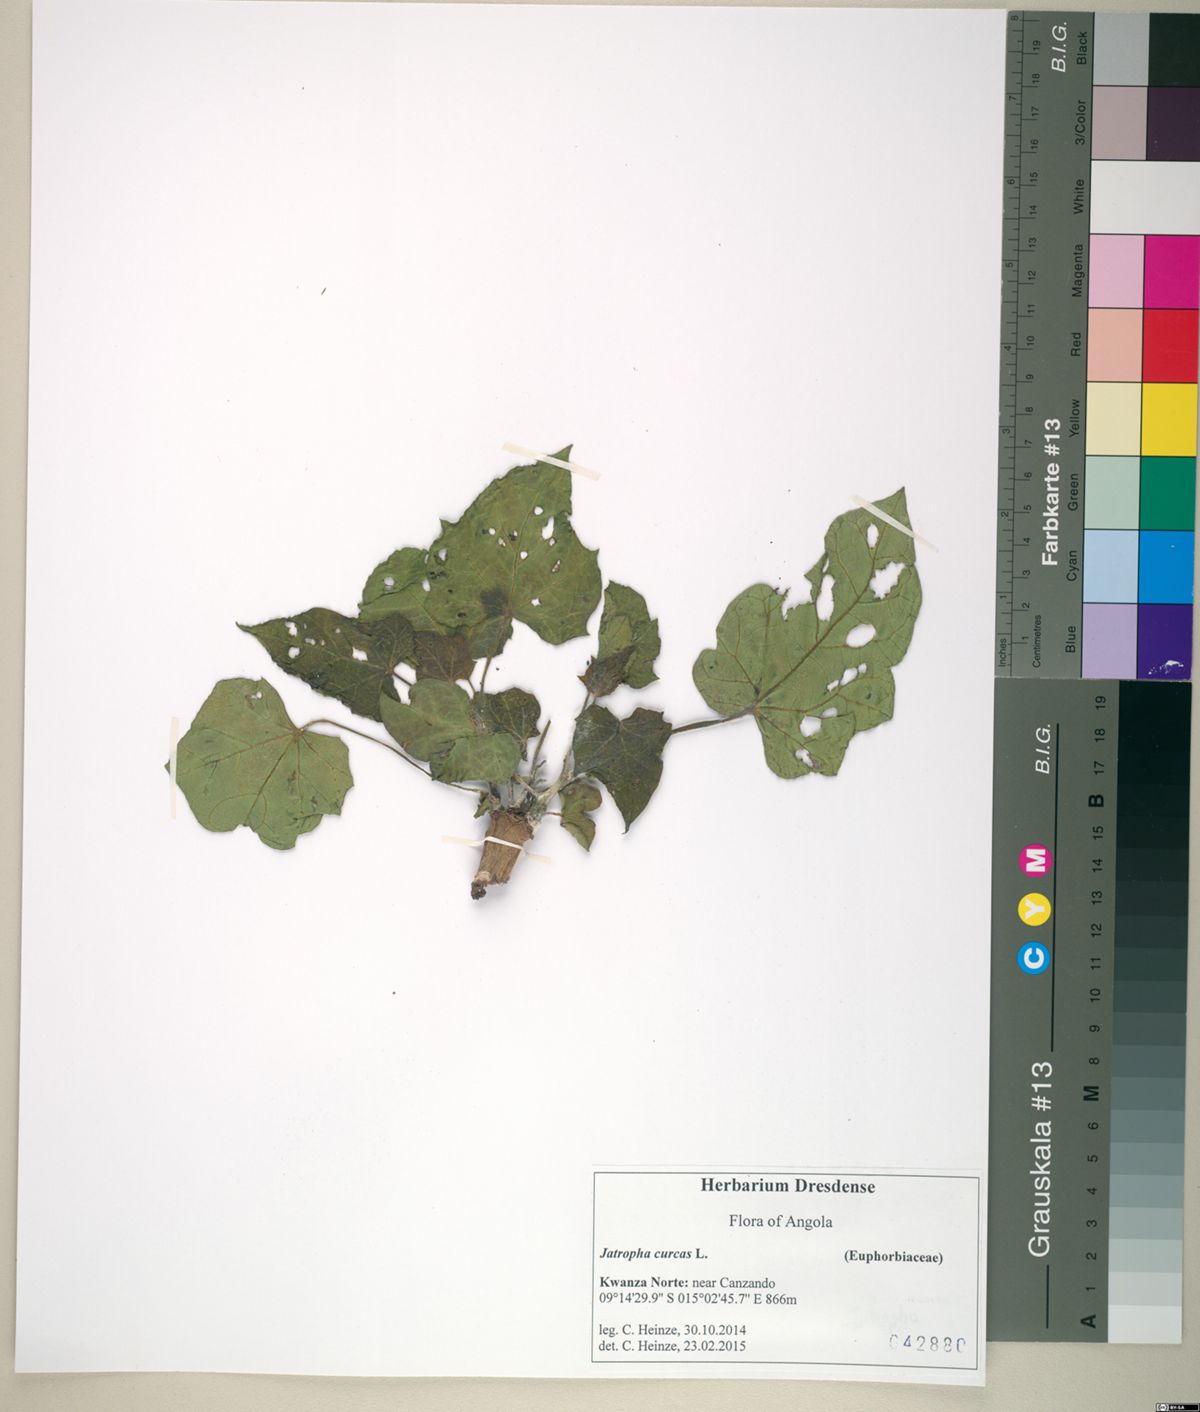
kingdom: Plantae
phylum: Tracheophyta
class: Magnoliopsida
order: Malpighiales
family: Euphorbiaceae
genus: Jatropha
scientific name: Jatropha curcas
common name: Barbados nut
